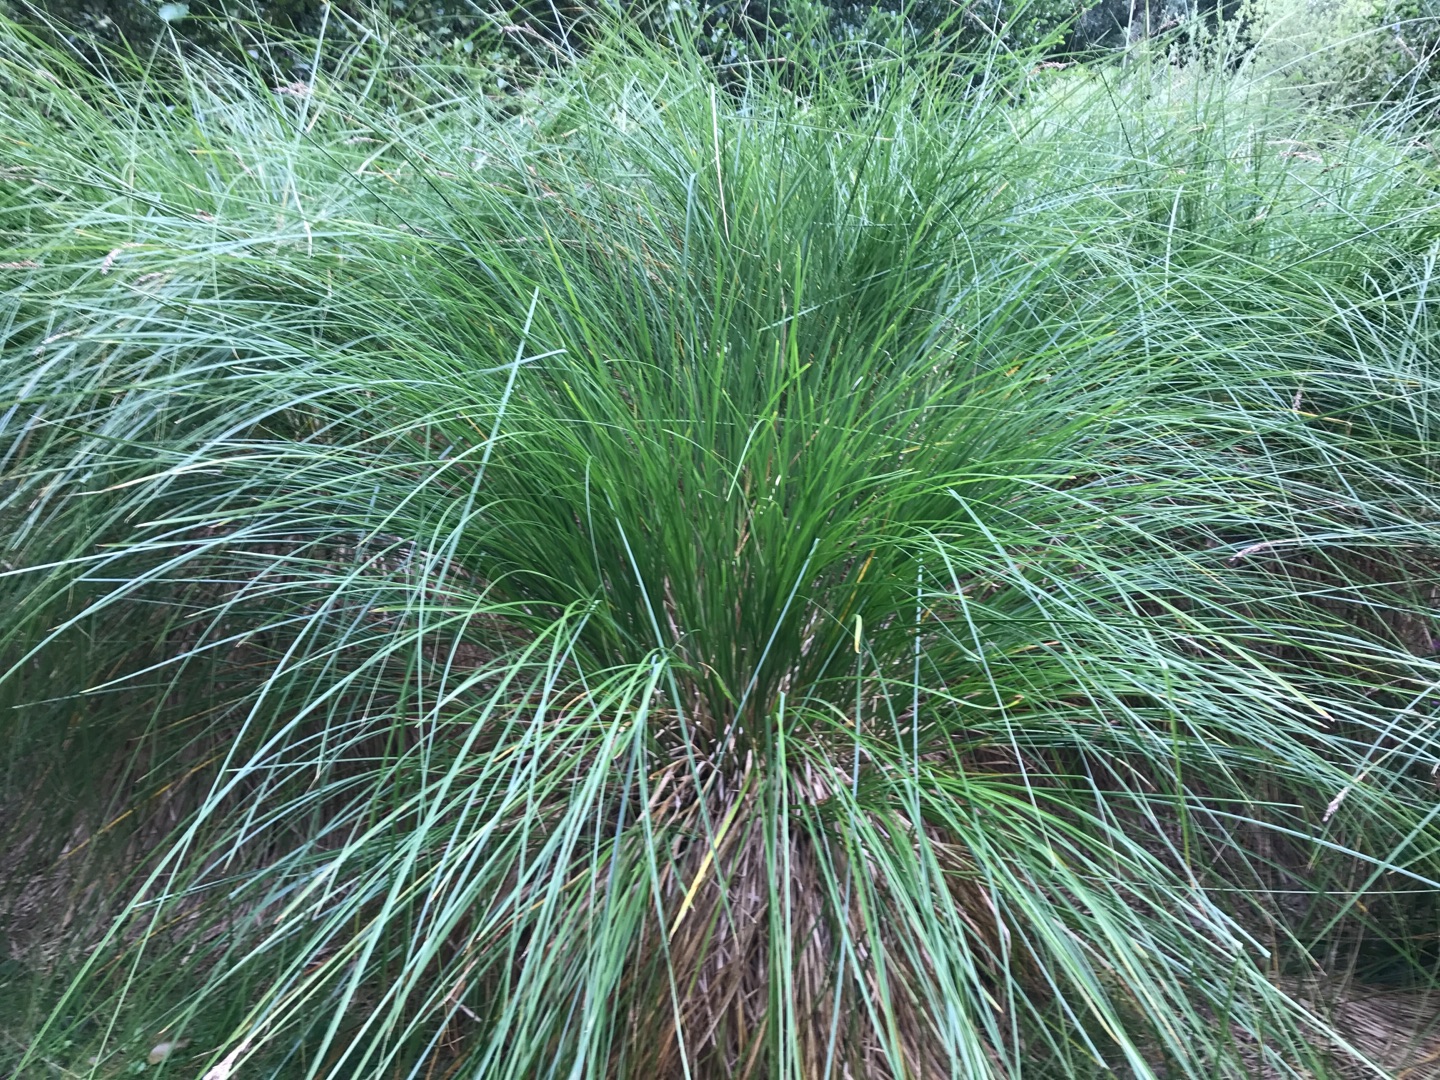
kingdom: Plantae
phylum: Tracheophyta
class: Liliopsida
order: Poales
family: Cyperaceae
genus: Carex
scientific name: Carex
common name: Starslægten
